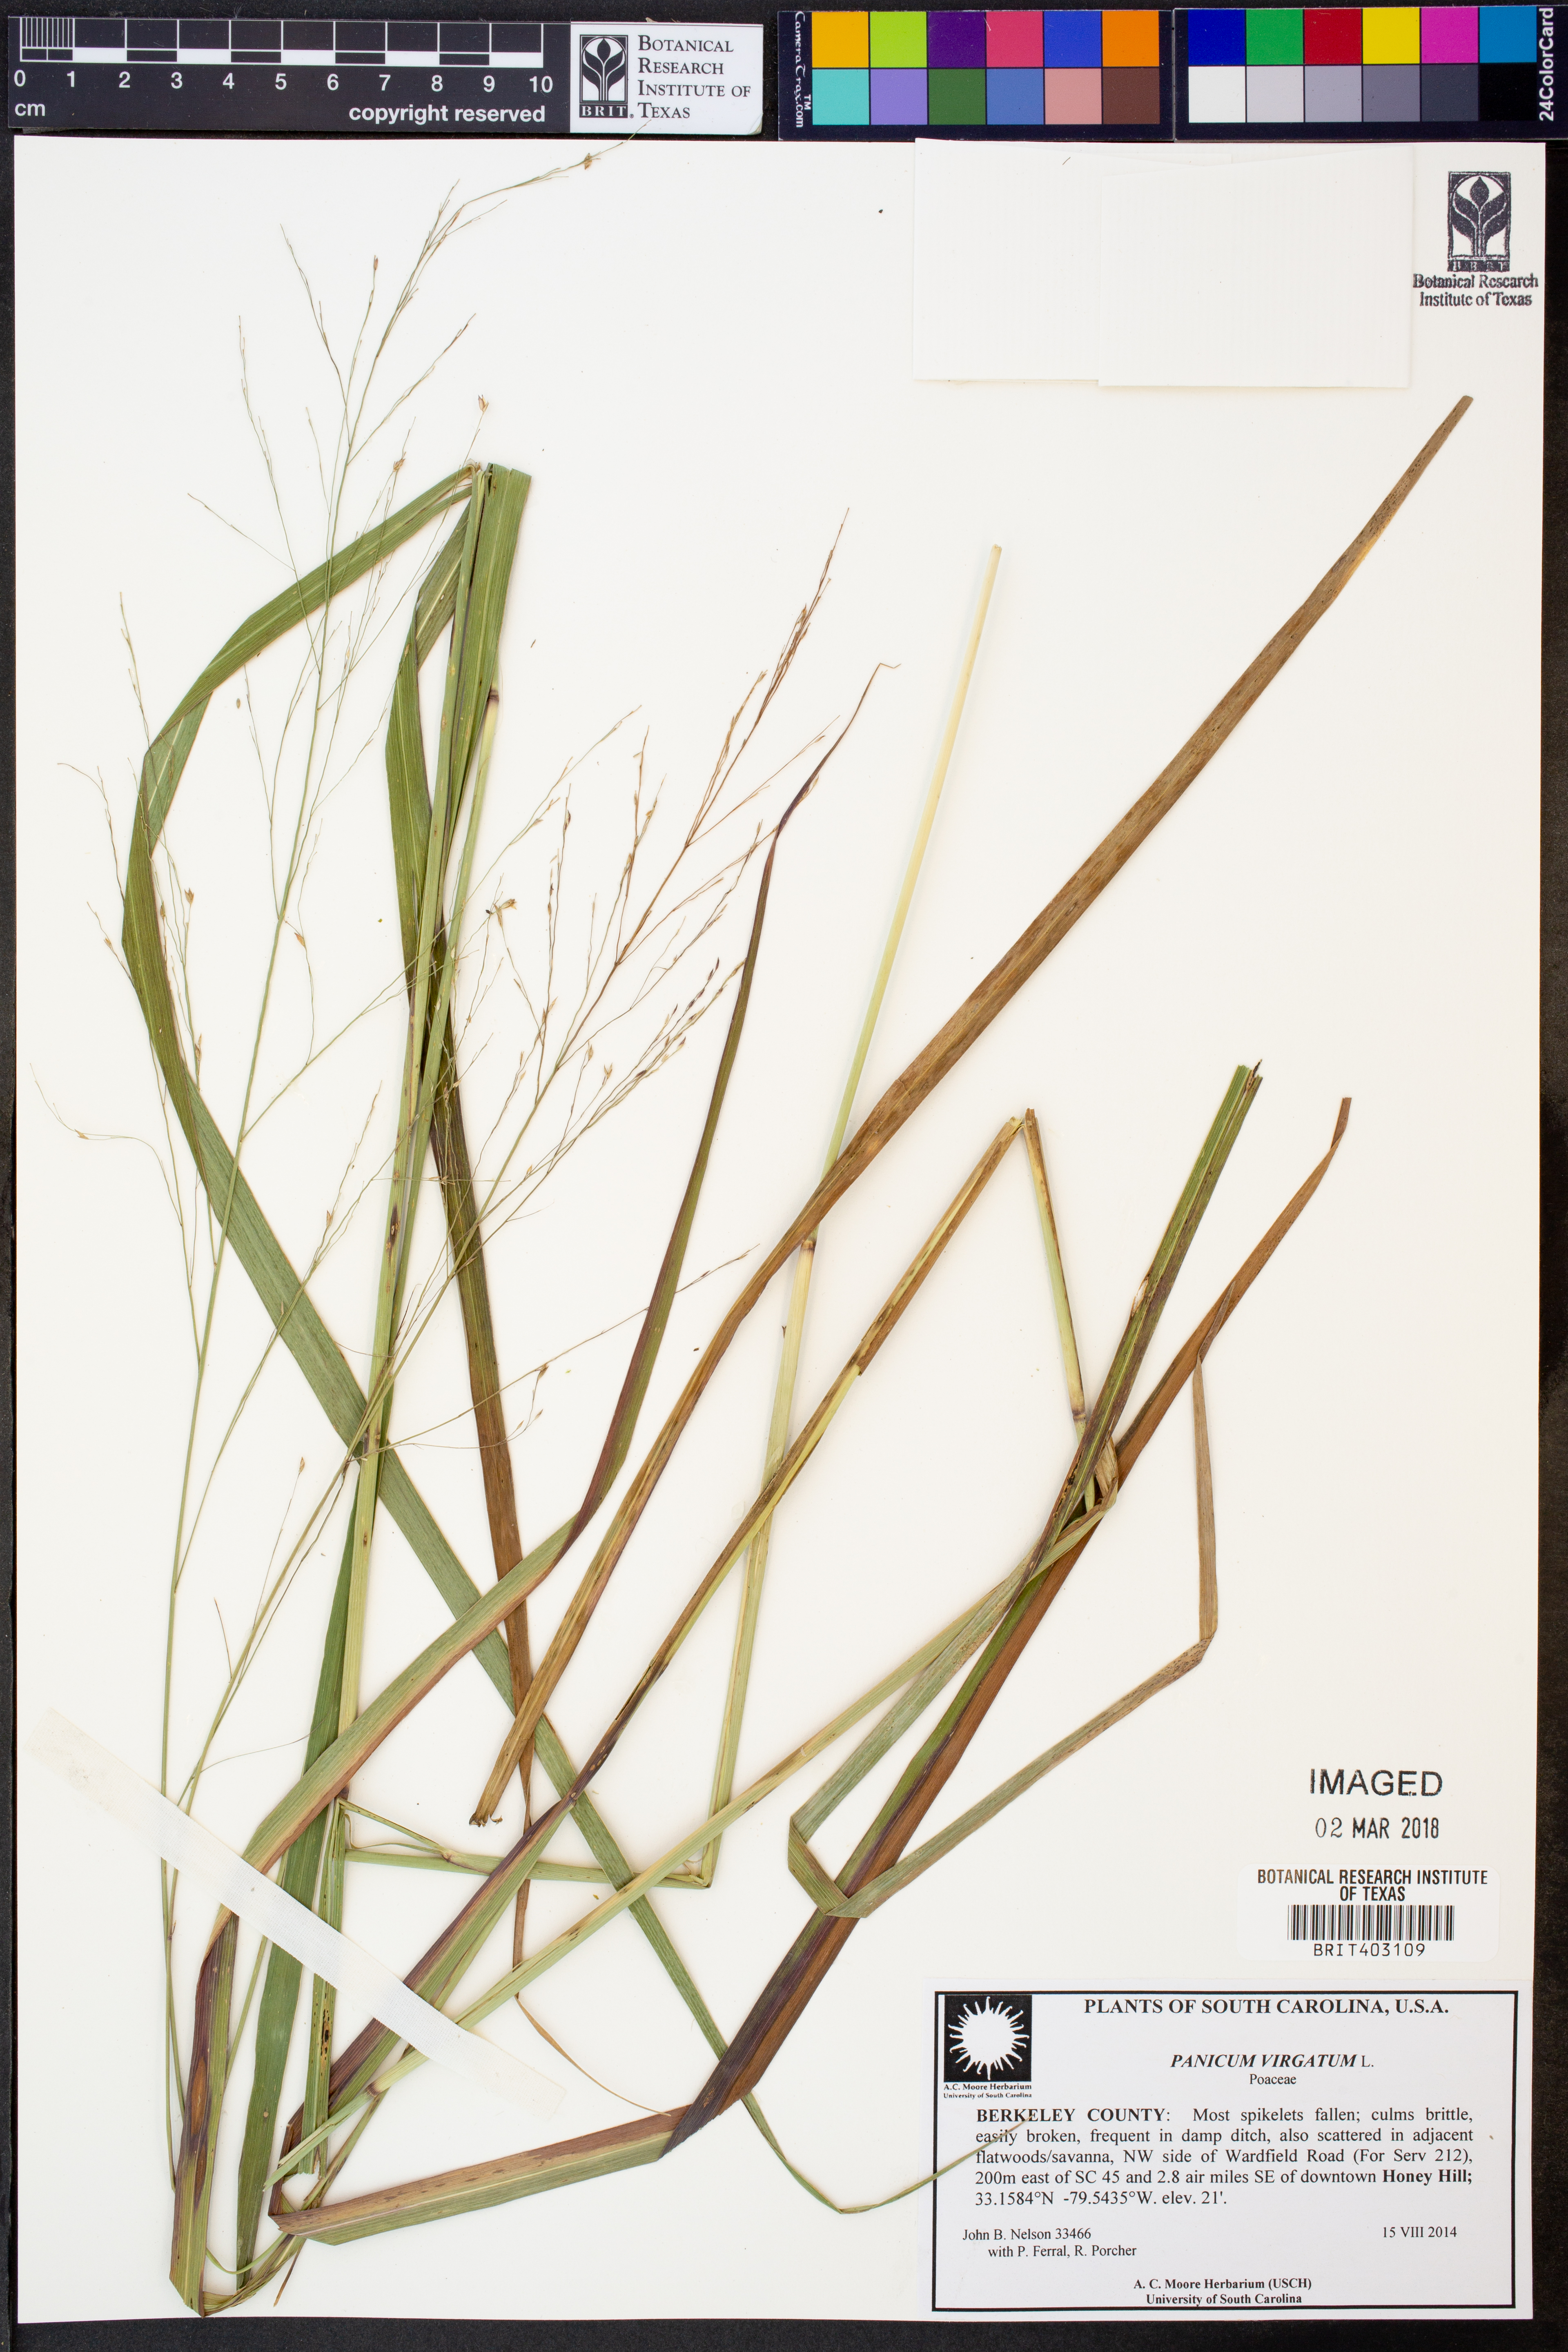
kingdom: Plantae
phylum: Tracheophyta
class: Liliopsida
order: Poales
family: Poaceae
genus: Panicum
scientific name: Panicum virgatum
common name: Switchgrass
